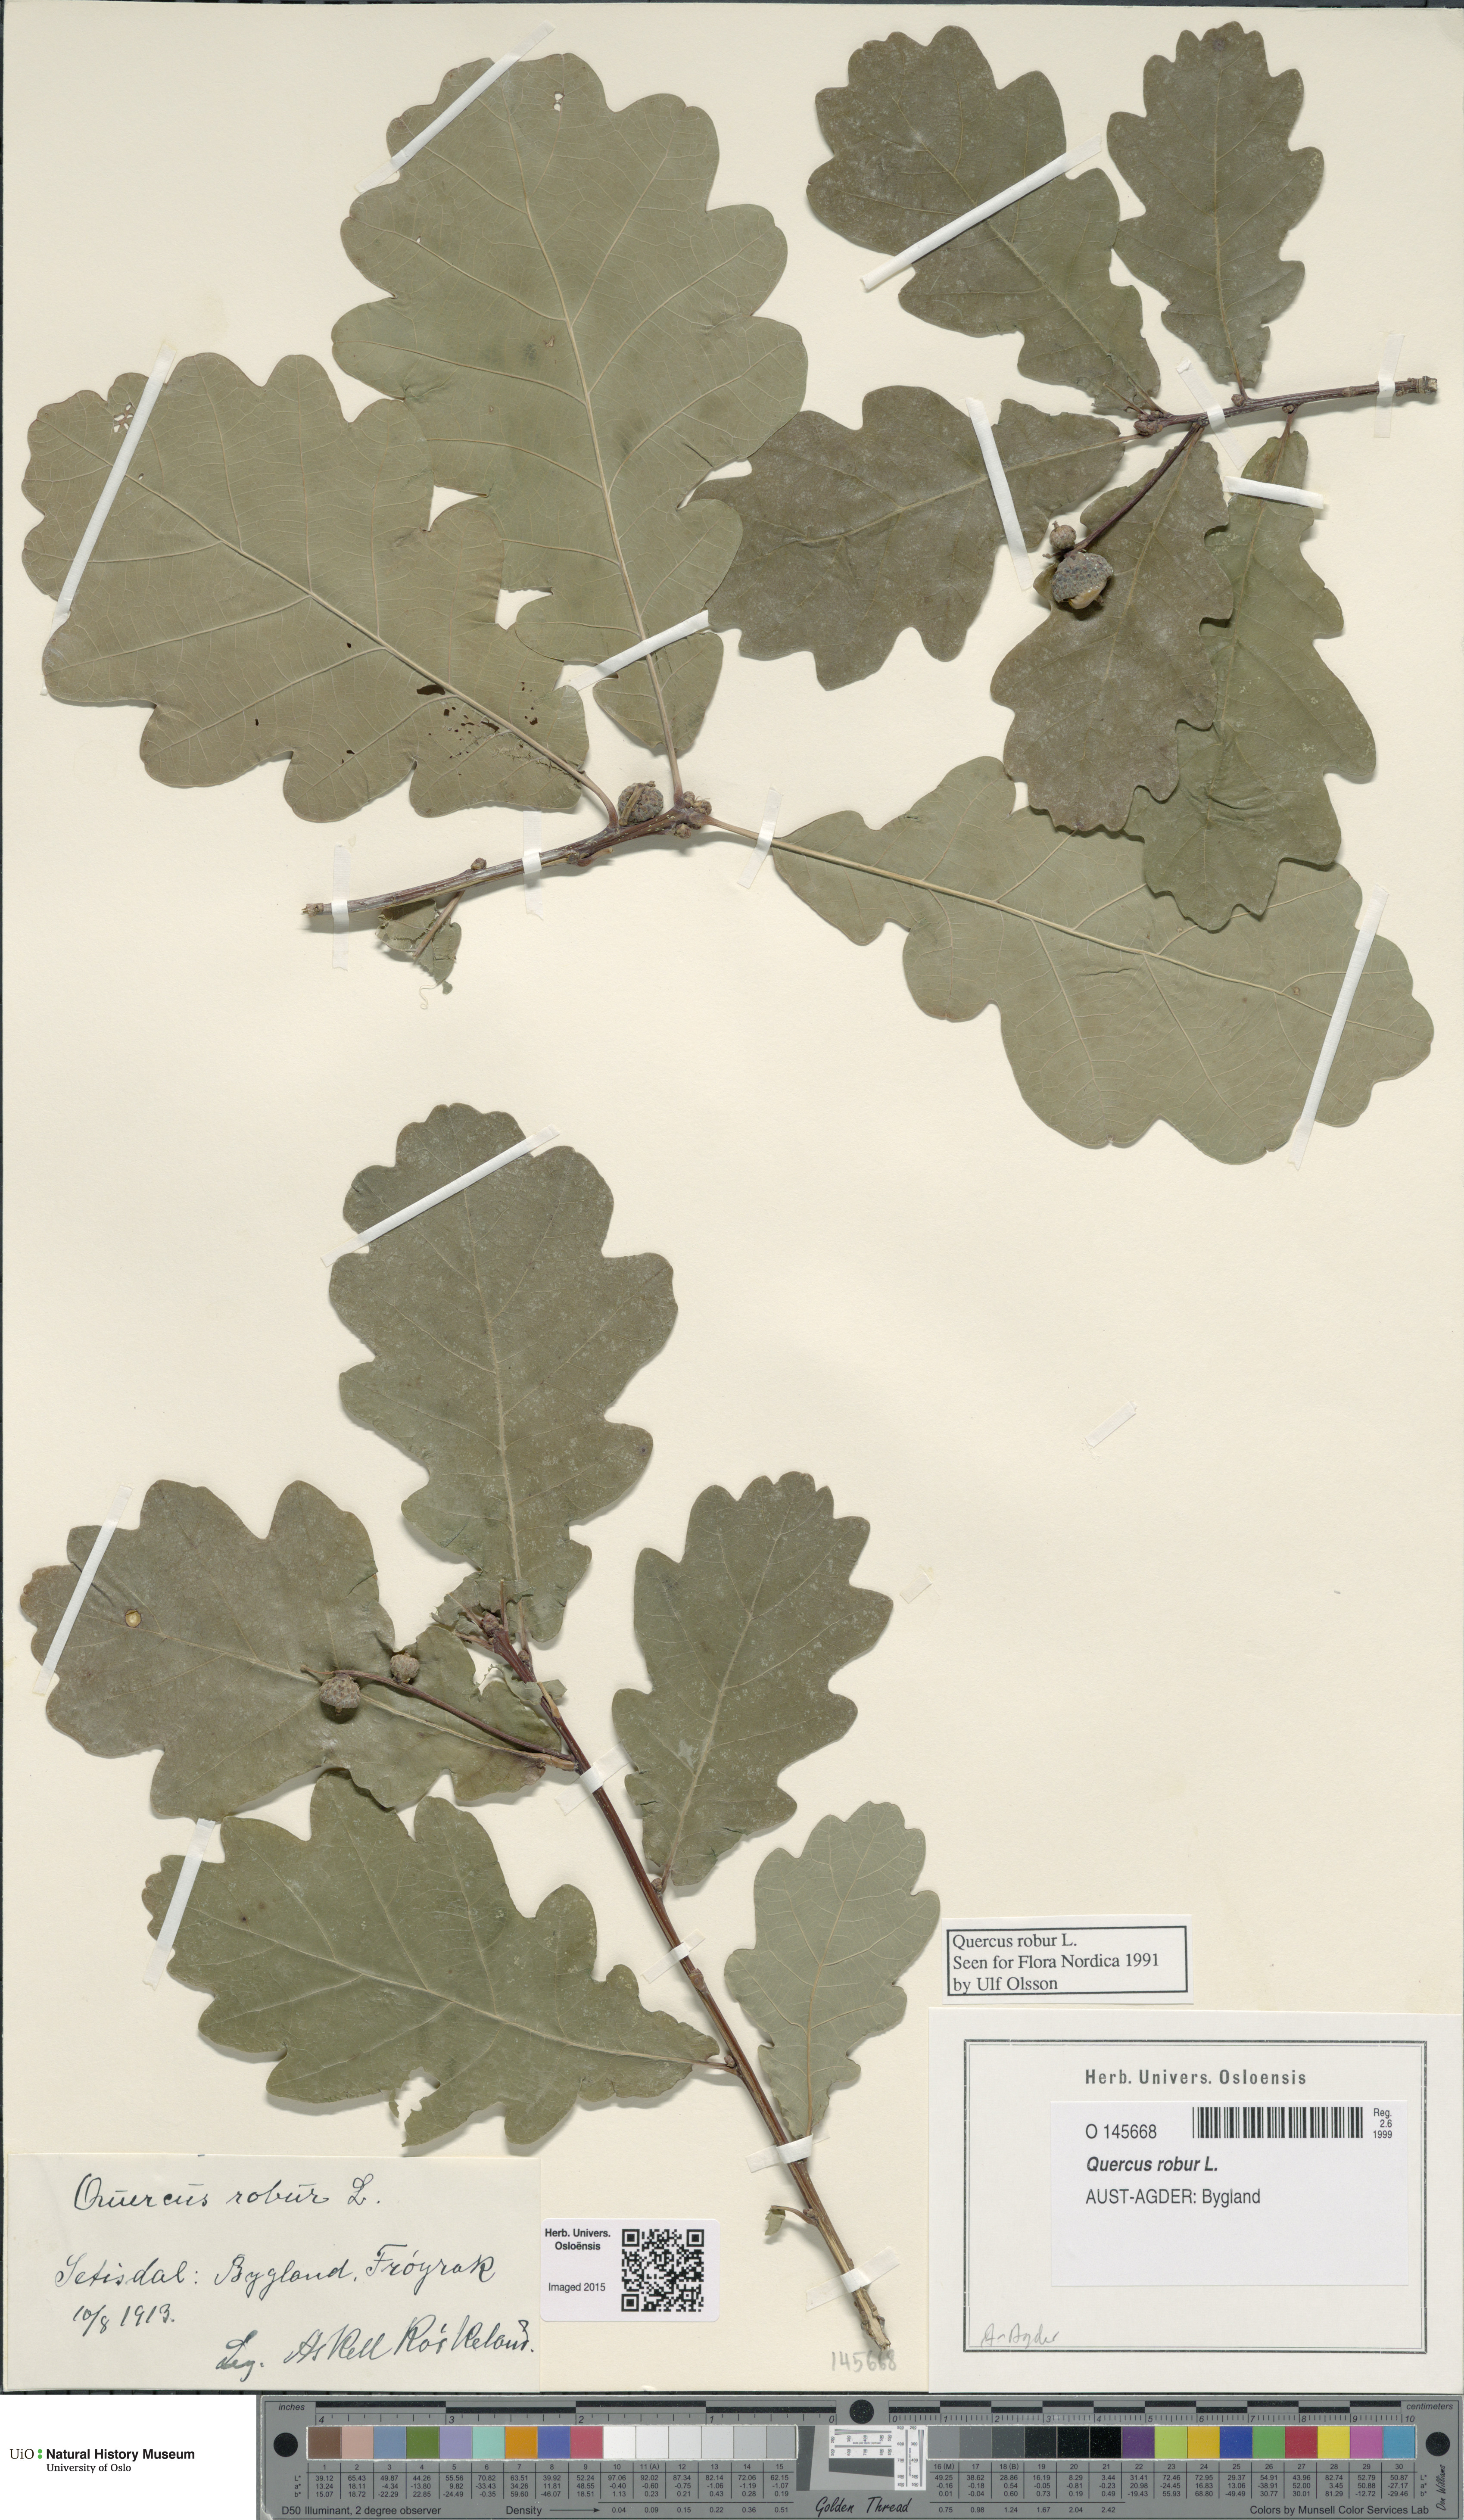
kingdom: Plantae
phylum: Tracheophyta
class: Magnoliopsida
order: Fagales
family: Fagaceae
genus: Quercus
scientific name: Quercus robur
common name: Pedunculate oak
